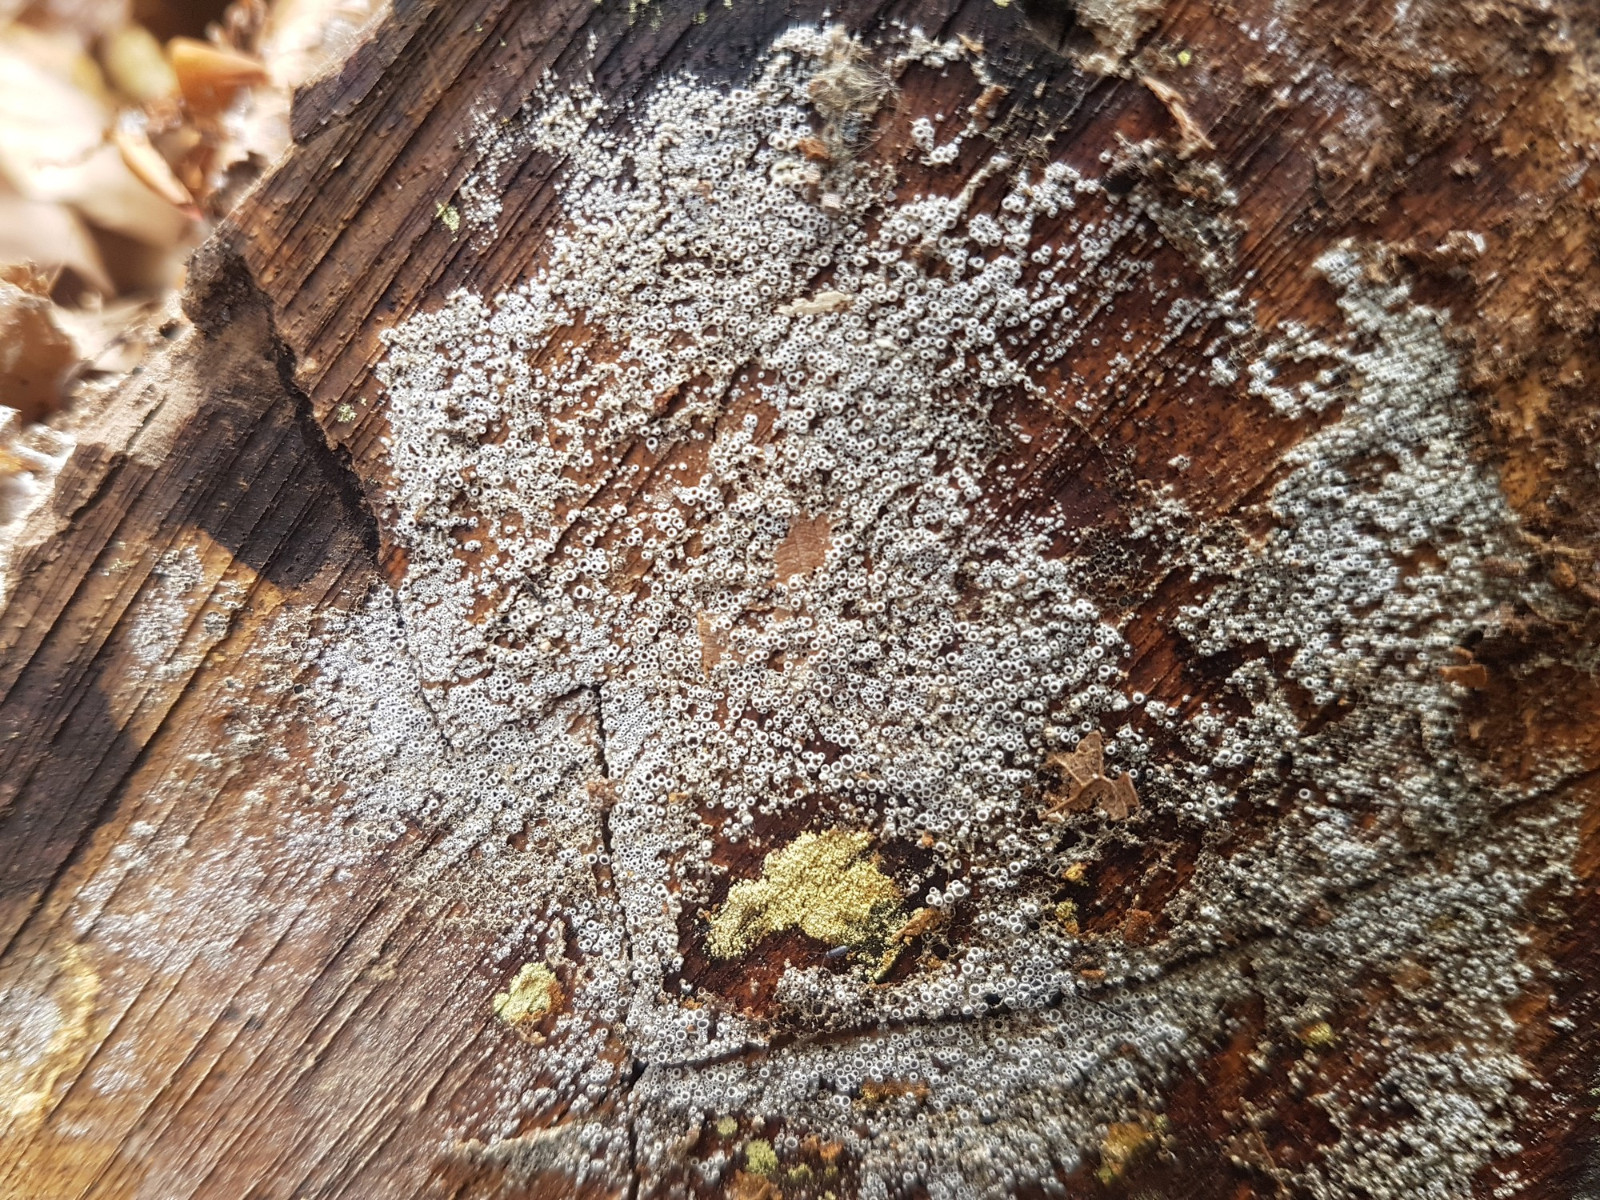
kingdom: Fungi
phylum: Ascomycota
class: Leotiomycetes
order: Helotiales
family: Arachnopezizaceae
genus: Eriopezia
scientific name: Eriopezia caesia
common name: ege-spindskive
